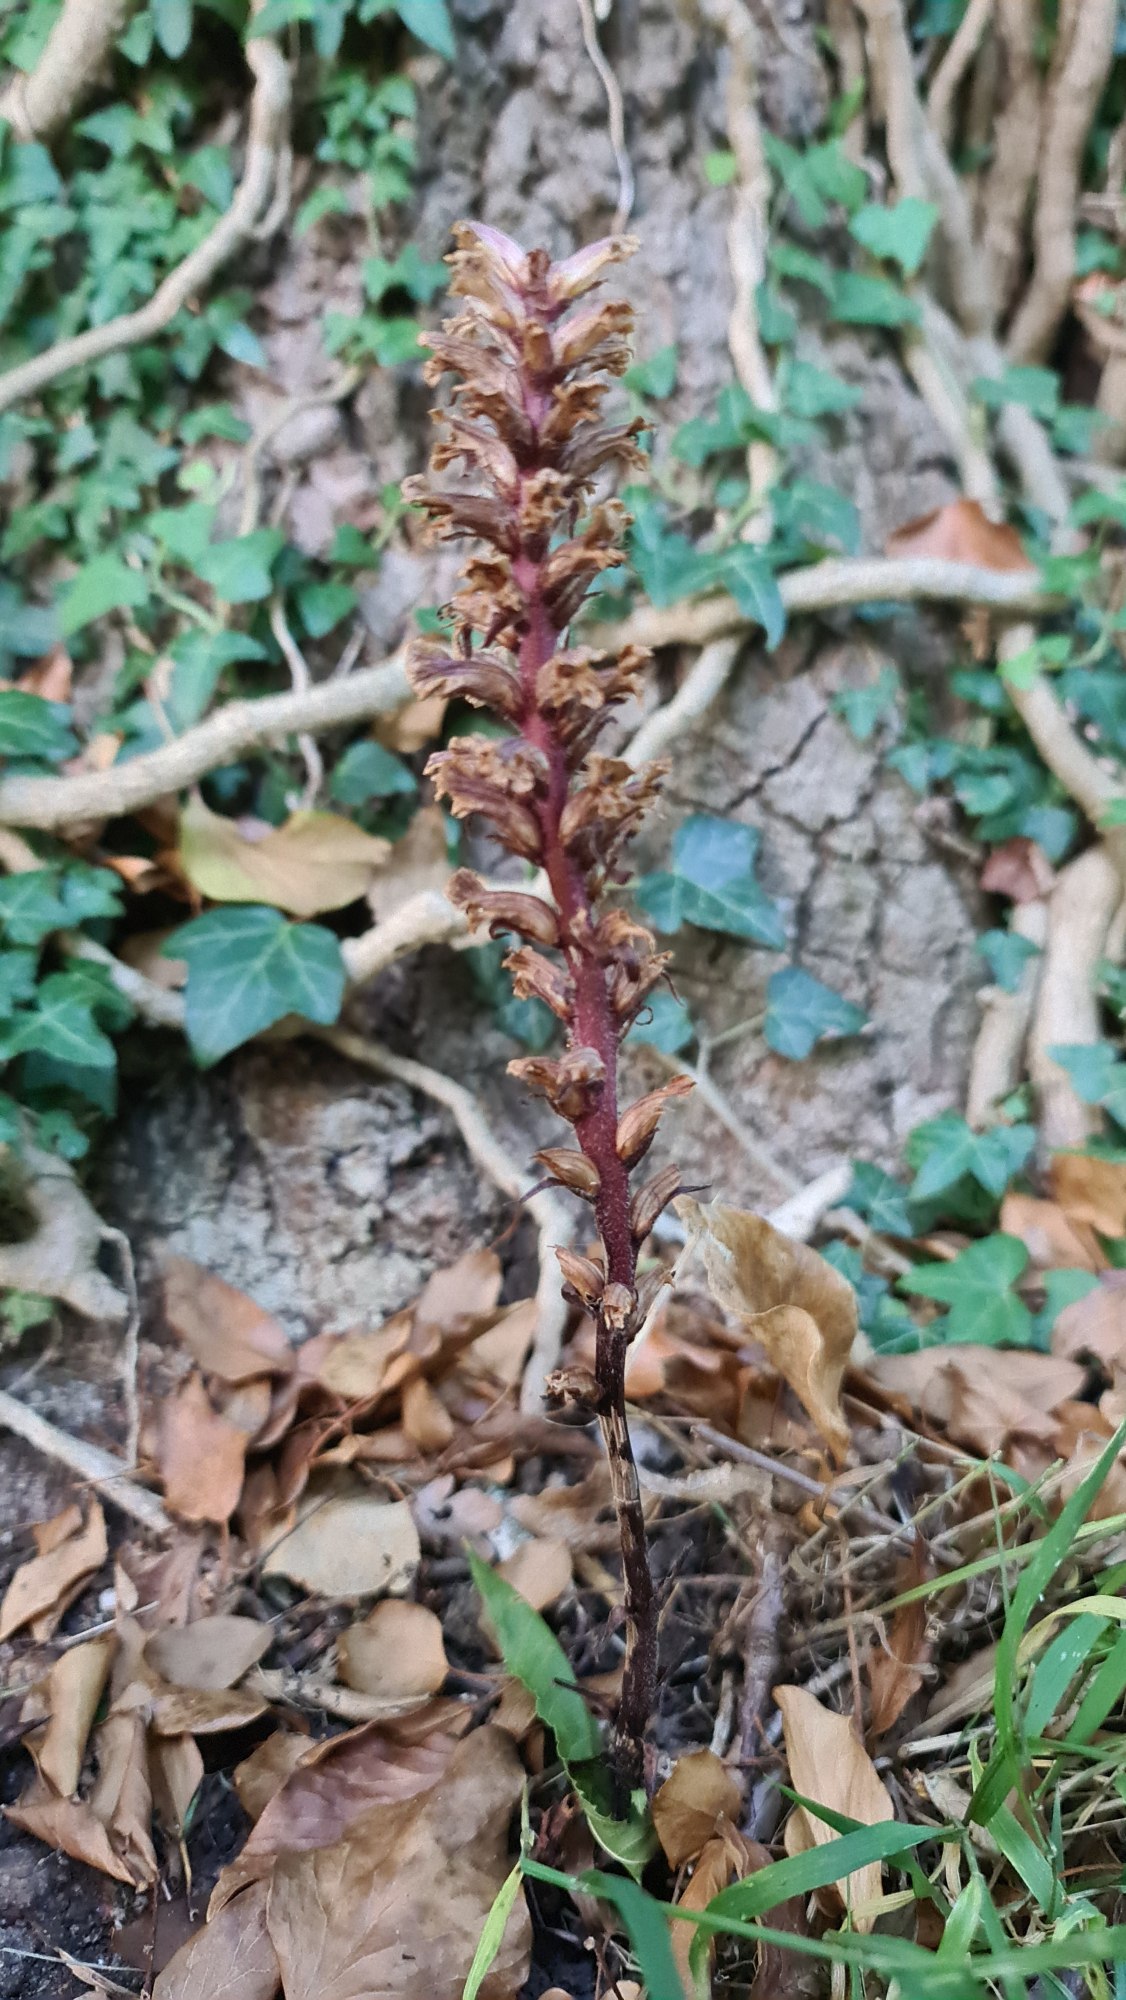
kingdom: Plantae
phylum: Tracheophyta
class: Magnoliopsida
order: Lamiales
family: Orobanchaceae
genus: Orobanche
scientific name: Orobanche hederae
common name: Vedbend-gyvelkvæler
